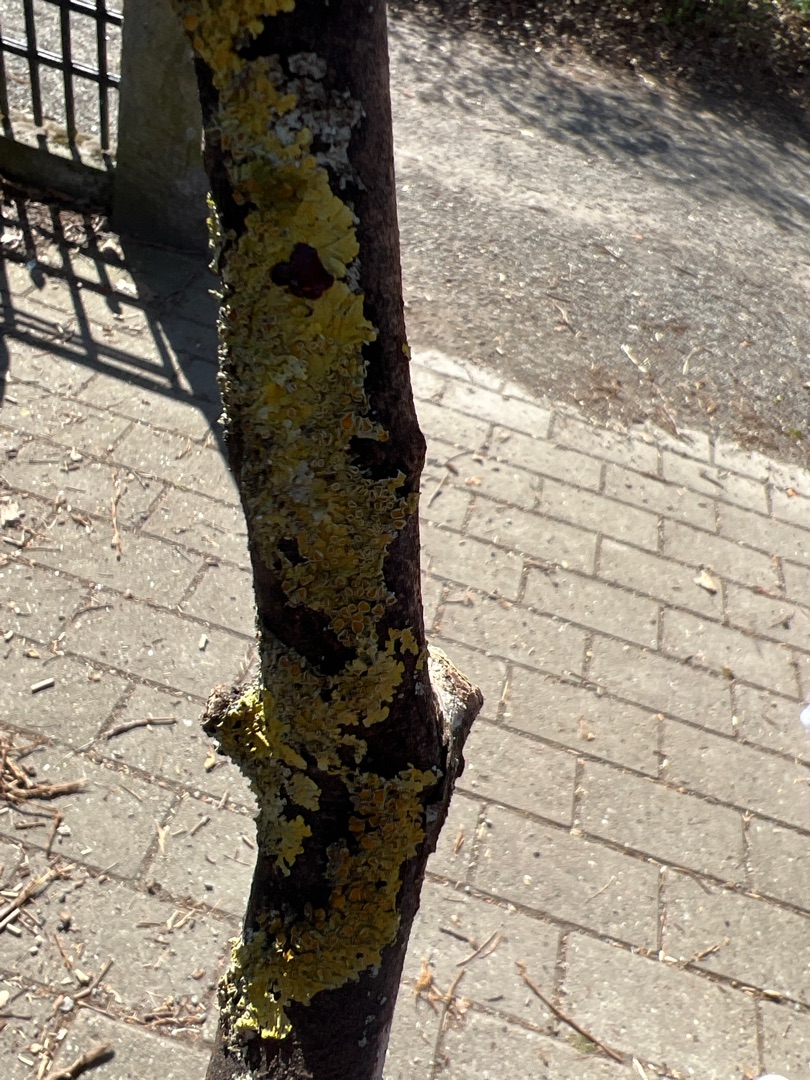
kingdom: Fungi
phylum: Ascomycota
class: Lecanoromycetes
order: Teloschistales
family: Teloschistaceae
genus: Xanthoria
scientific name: Xanthoria parietina
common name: Almindelig væggelav
